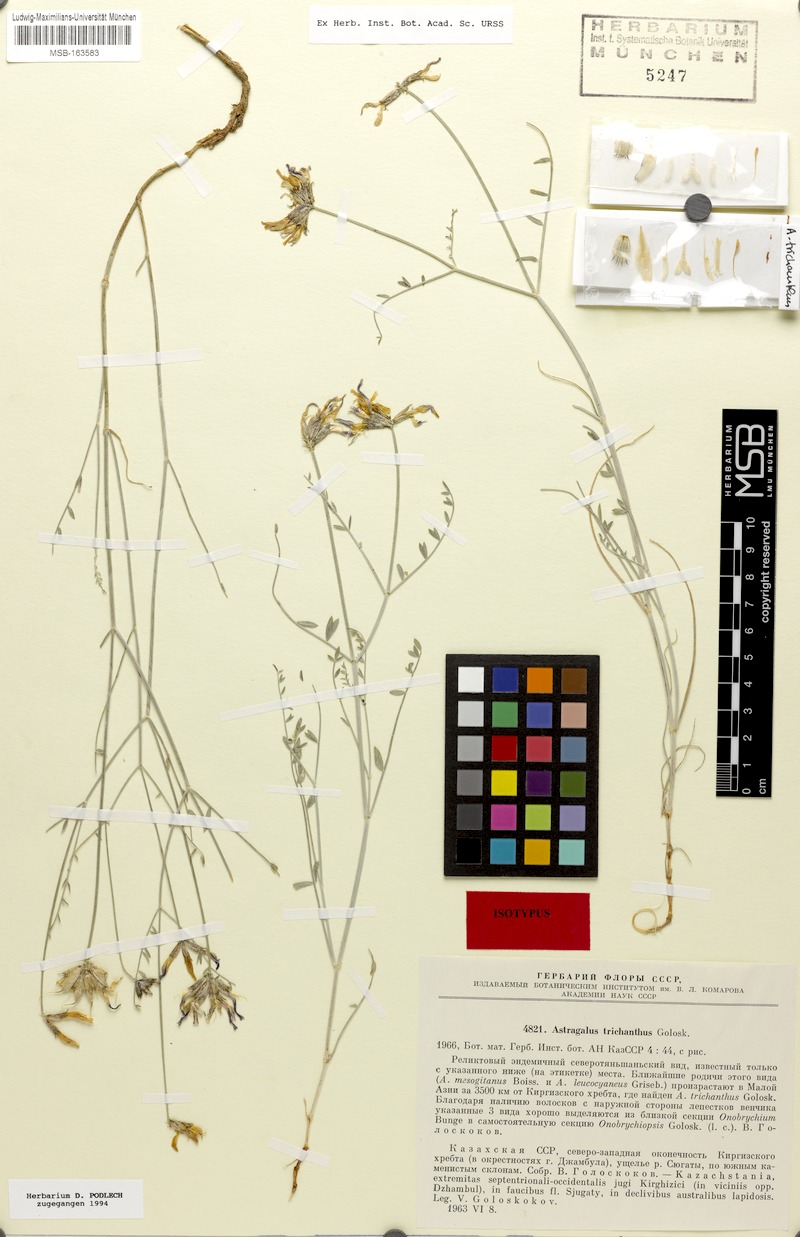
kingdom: Plantae
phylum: Tracheophyta
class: Magnoliopsida
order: Fabales
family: Fabaceae
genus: Astragalus
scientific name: Astragalus trichanthus
